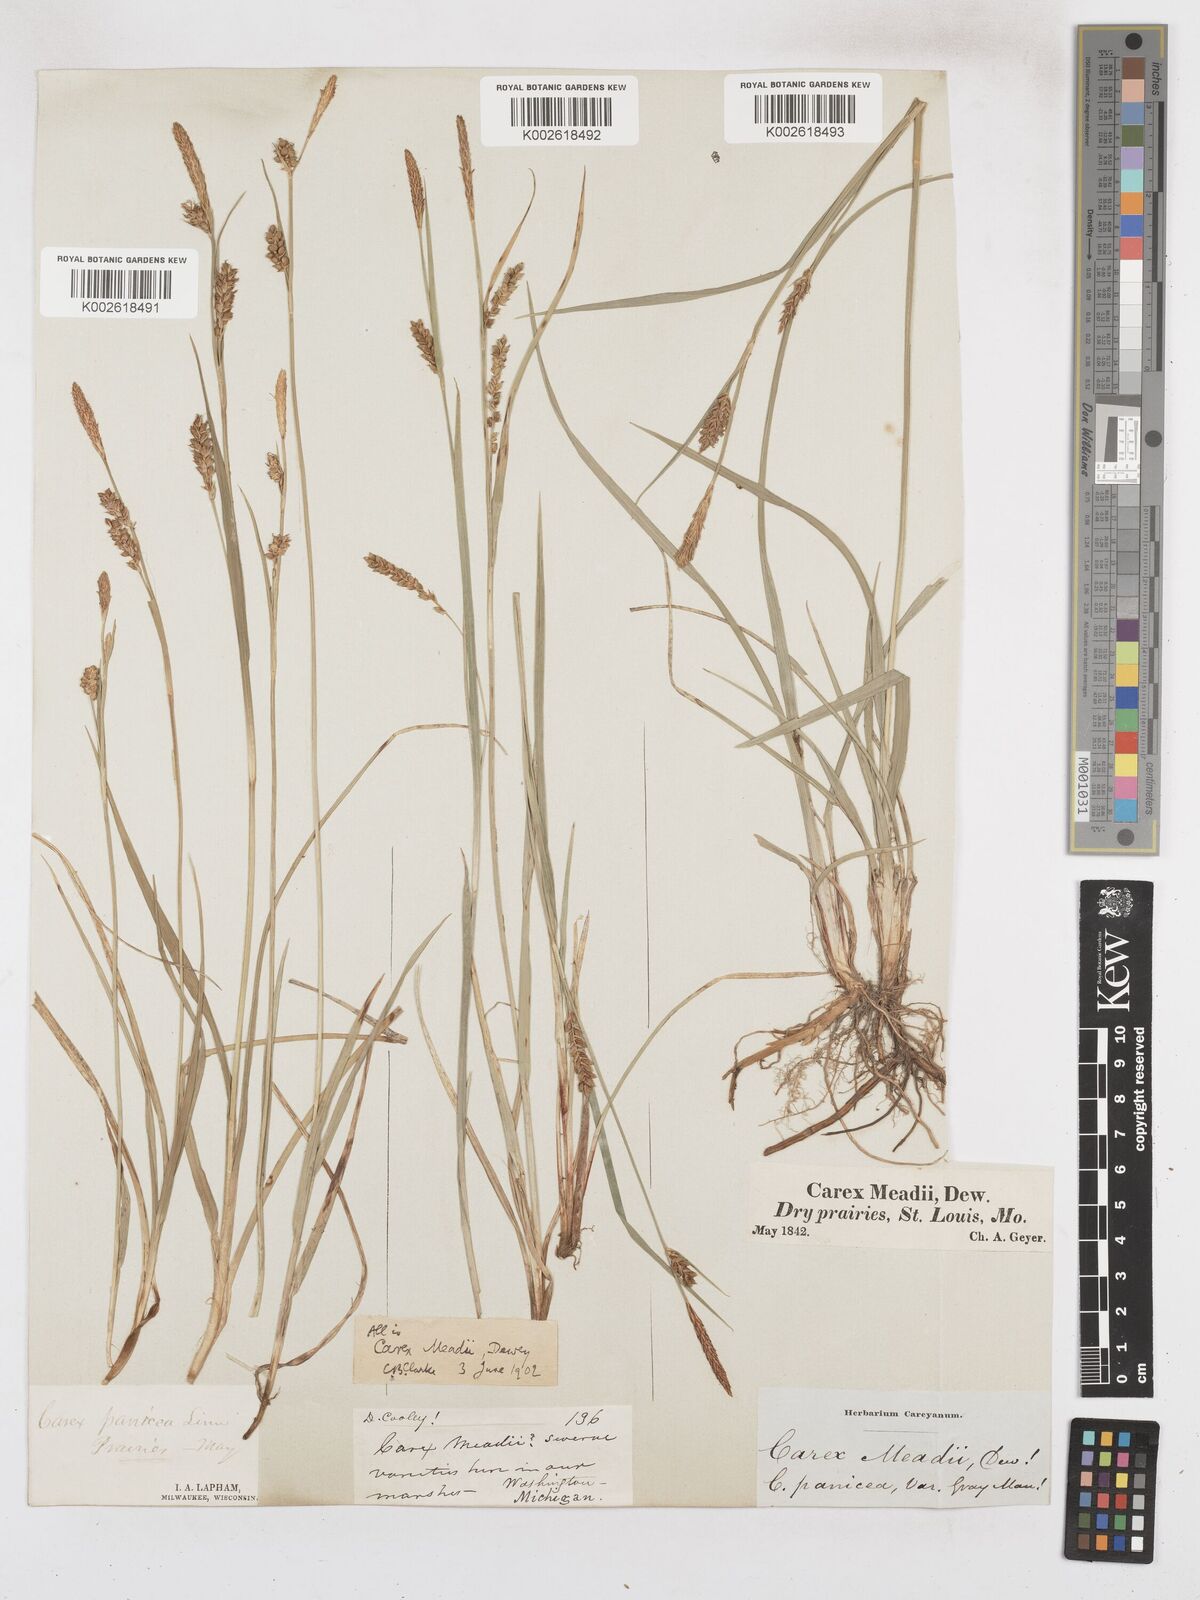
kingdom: Plantae
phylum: Tracheophyta
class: Liliopsida
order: Poales
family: Cyperaceae
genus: Carex
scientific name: Carex meadii
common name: Mead's sedge
